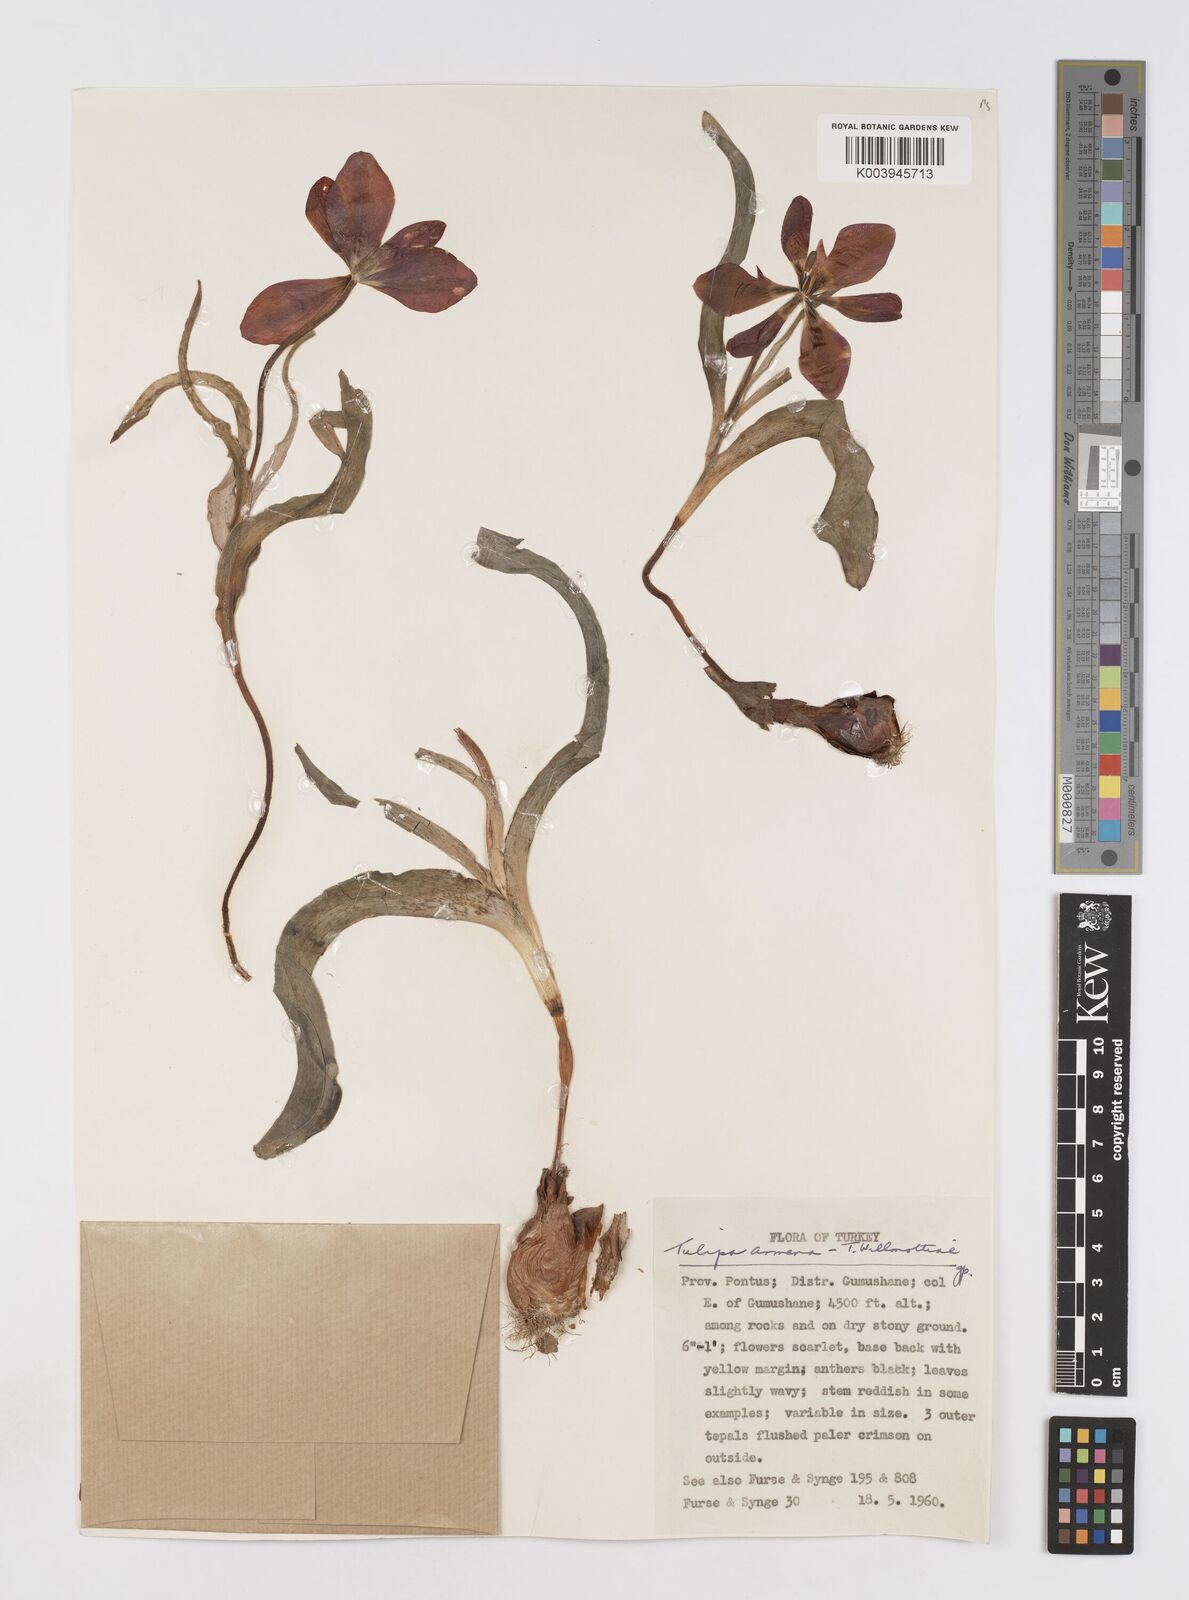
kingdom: Plantae
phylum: Tracheophyta
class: Liliopsida
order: Liliales
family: Liliaceae
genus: Tulipa
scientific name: Tulipa armena
